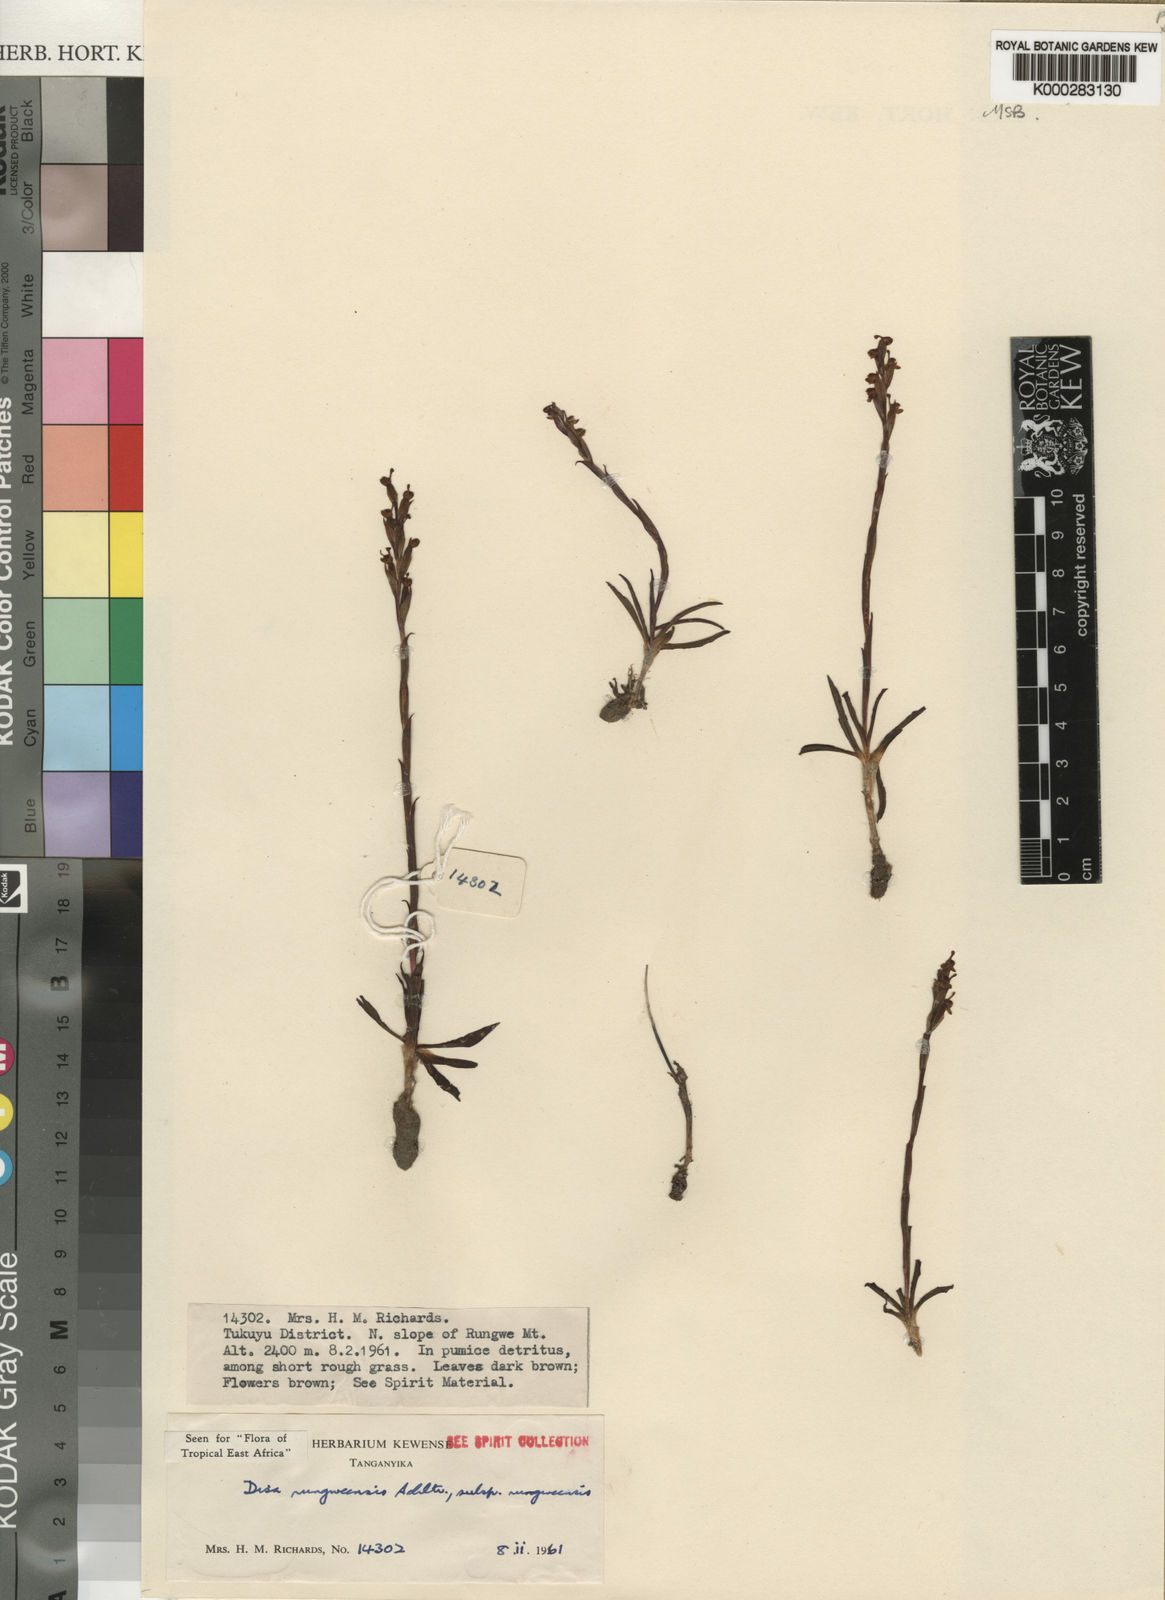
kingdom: Plantae
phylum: Tracheophyta
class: Liliopsida
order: Asparagales
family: Orchidaceae
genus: Disa
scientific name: Disa rungweensis
